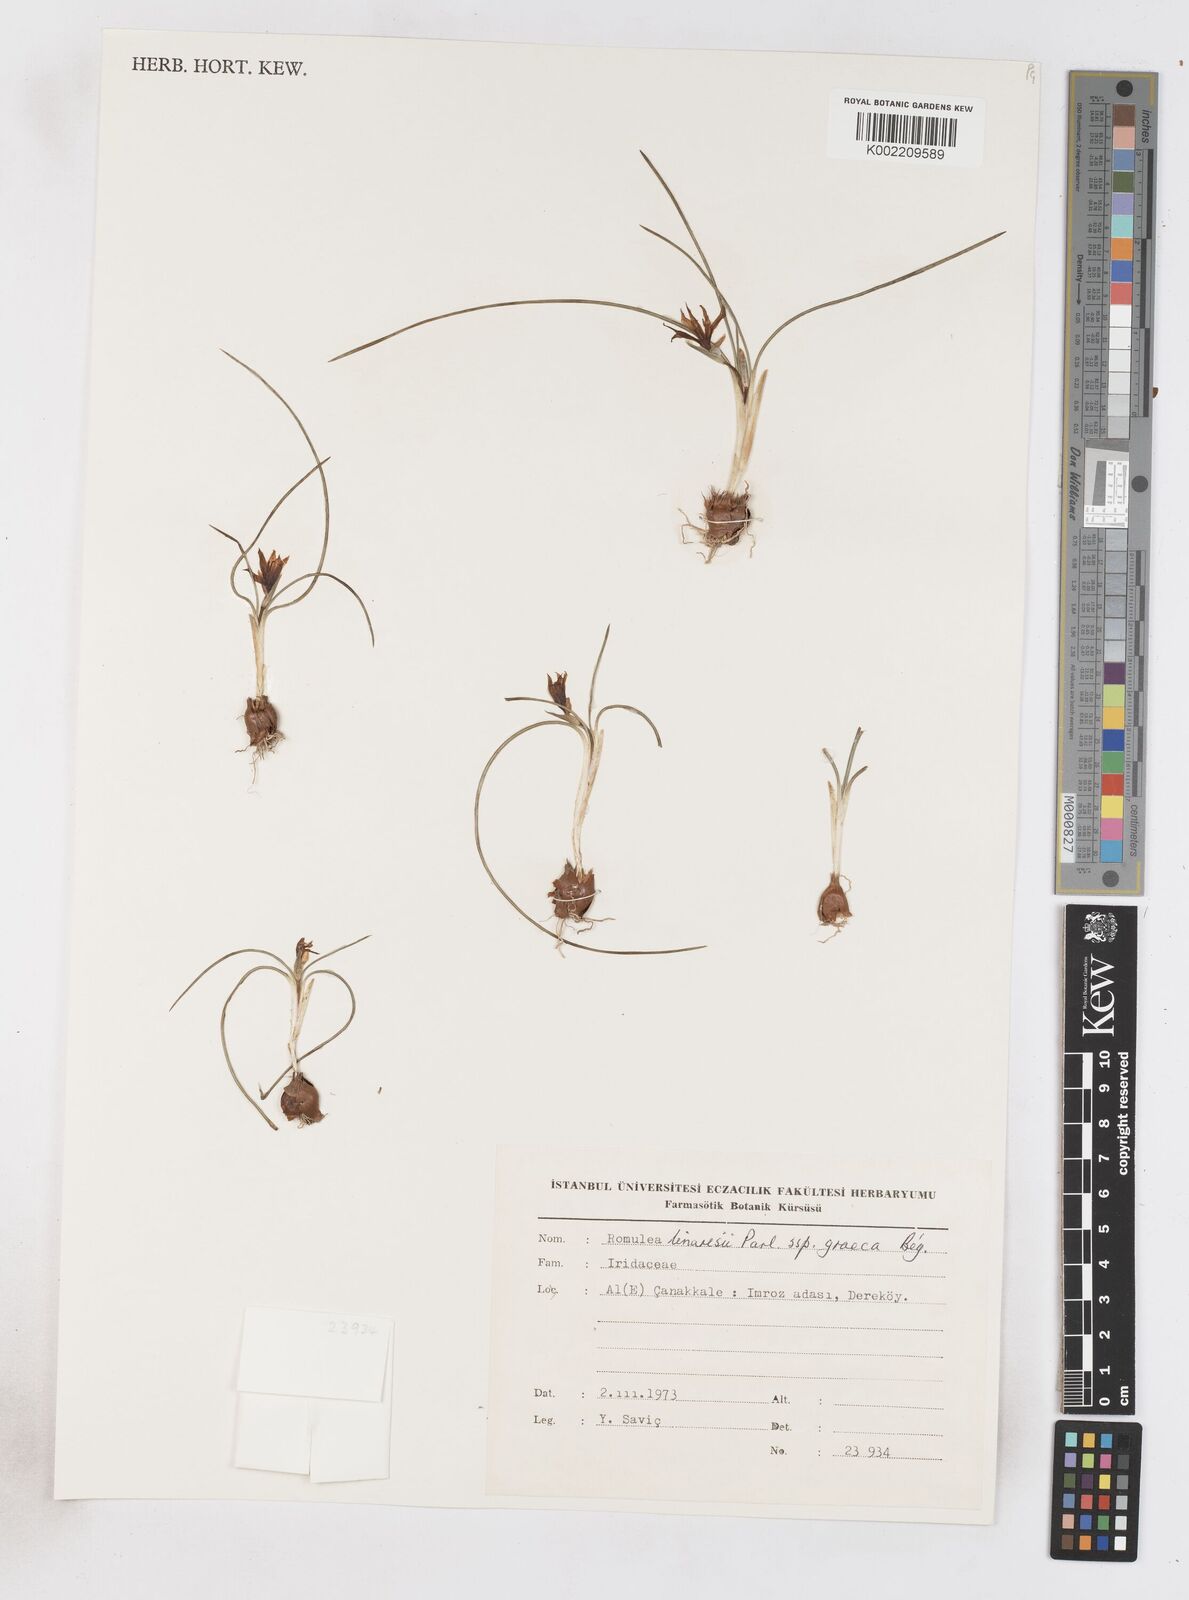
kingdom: Plantae
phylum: Tracheophyta
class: Liliopsida
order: Asparagales
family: Iridaceae
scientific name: Iridaceae
